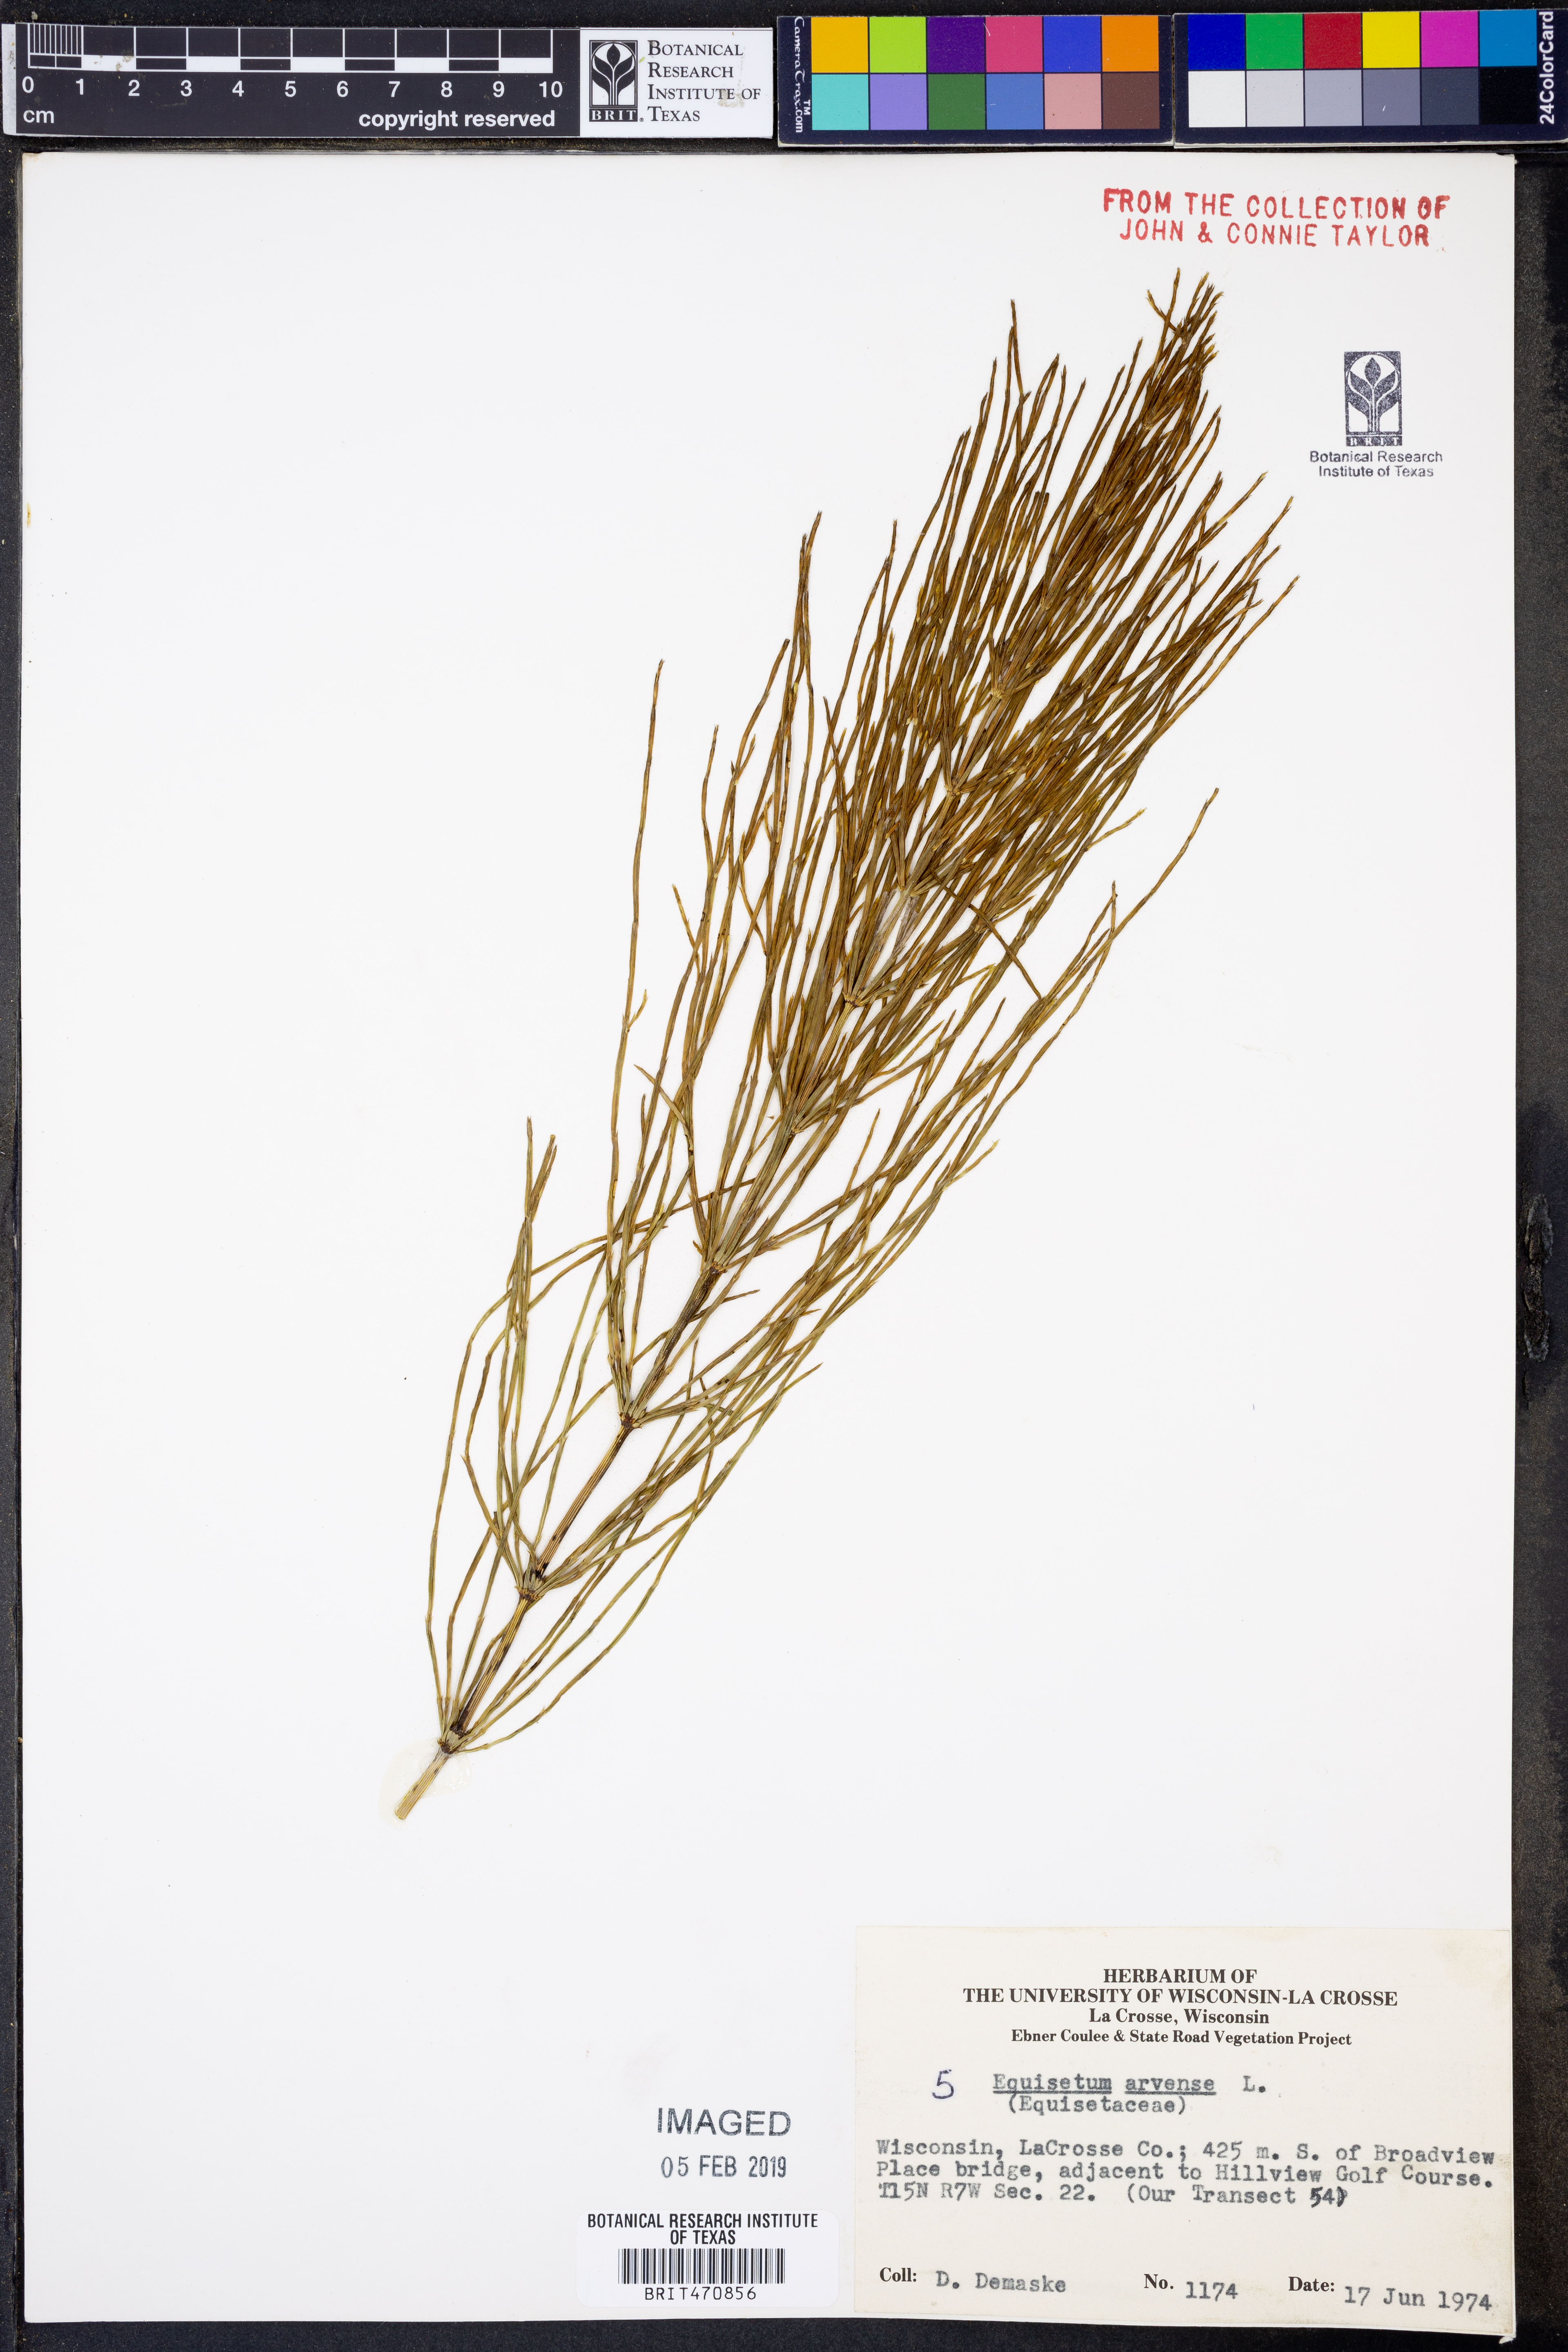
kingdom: Plantae
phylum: Tracheophyta
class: Polypodiopsida
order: Equisetales
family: Equisetaceae
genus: Equisetum
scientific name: Equisetum arvense
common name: Field horsetail
